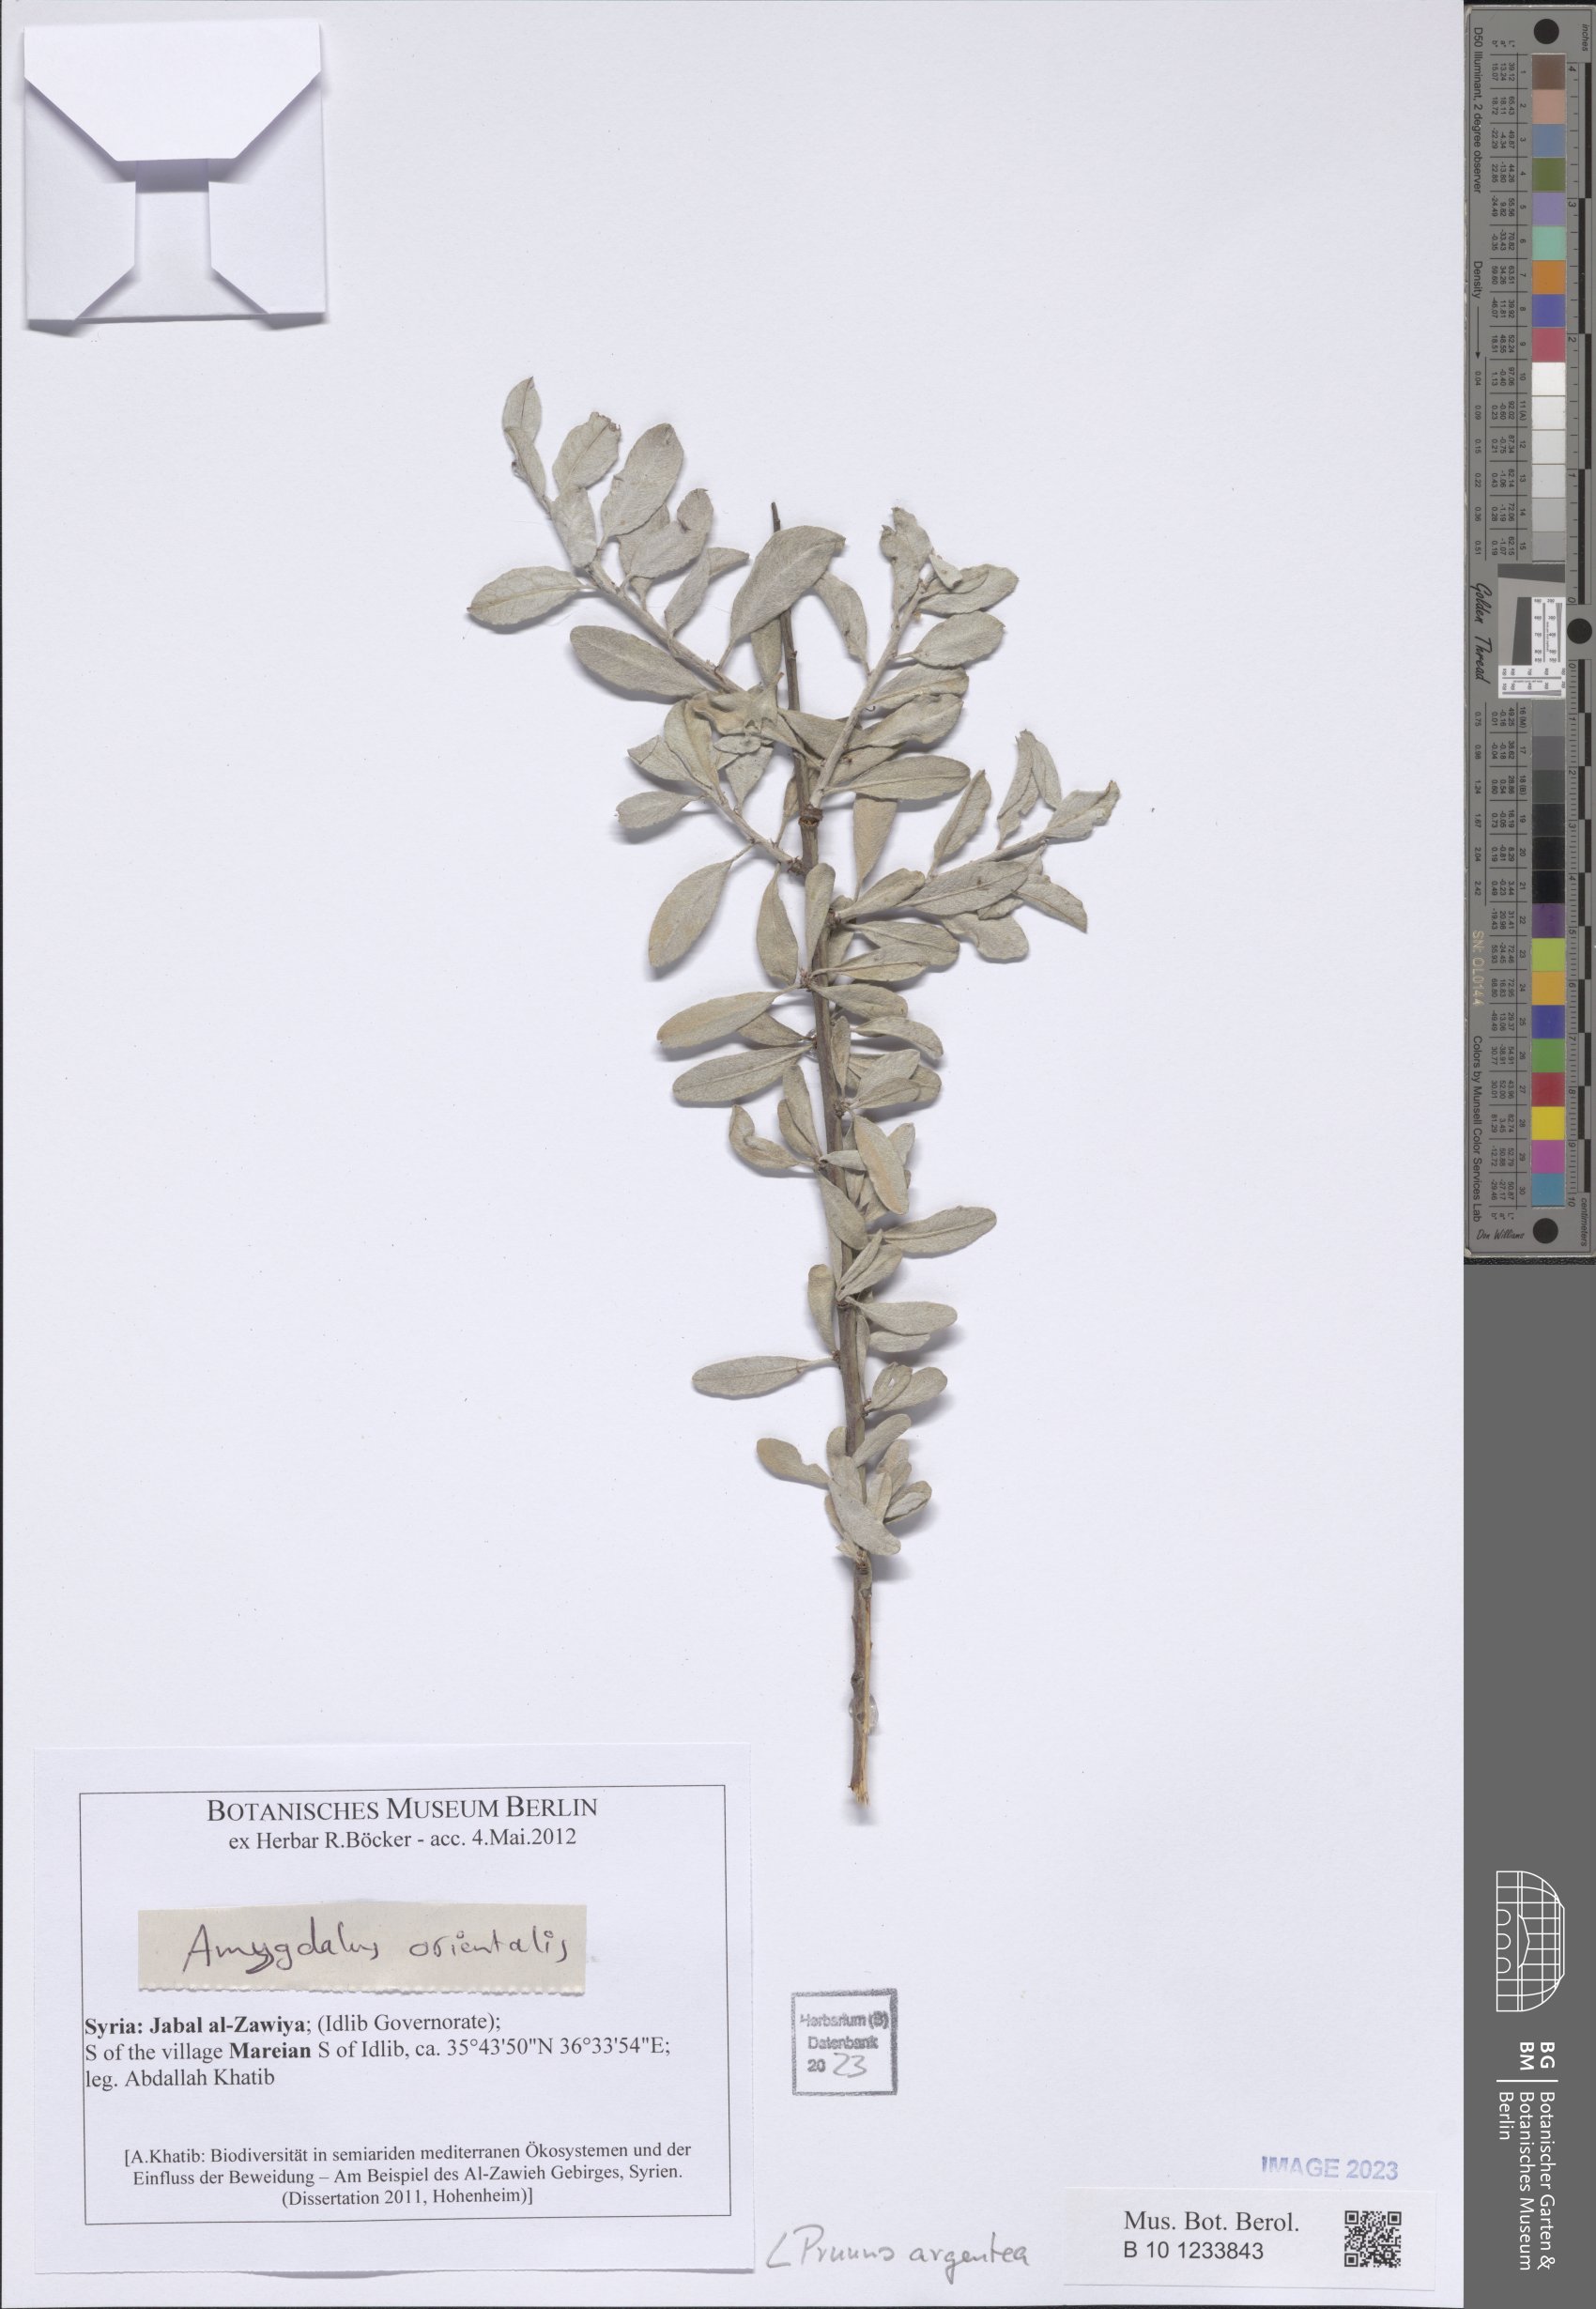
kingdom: Plantae
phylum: Tracheophyta
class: Magnoliopsida
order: Rosales
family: Rosaceae
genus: Prunus
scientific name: Prunus argentea
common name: Silver almond
